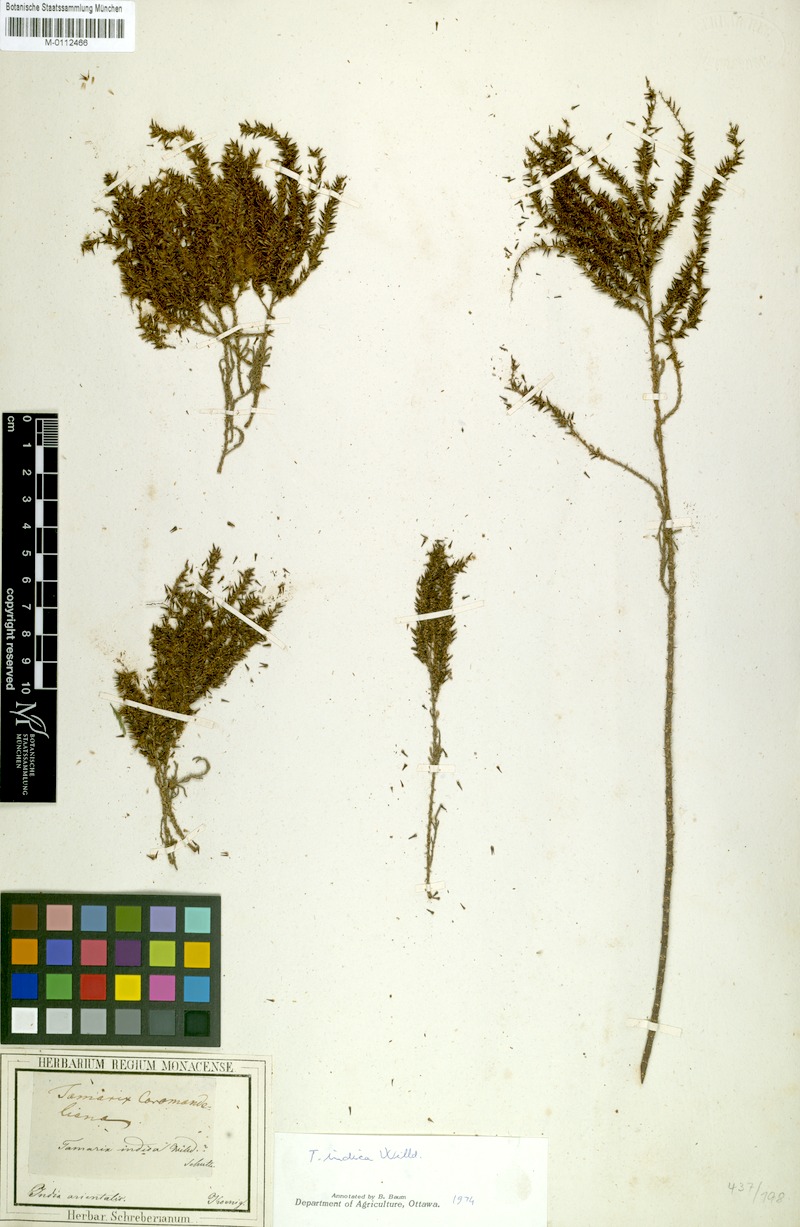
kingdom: Plantae
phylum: Tracheophyta
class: Magnoliopsida
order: Caryophyllales
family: Tamaricaceae
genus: Tamarix
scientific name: Tamarix
